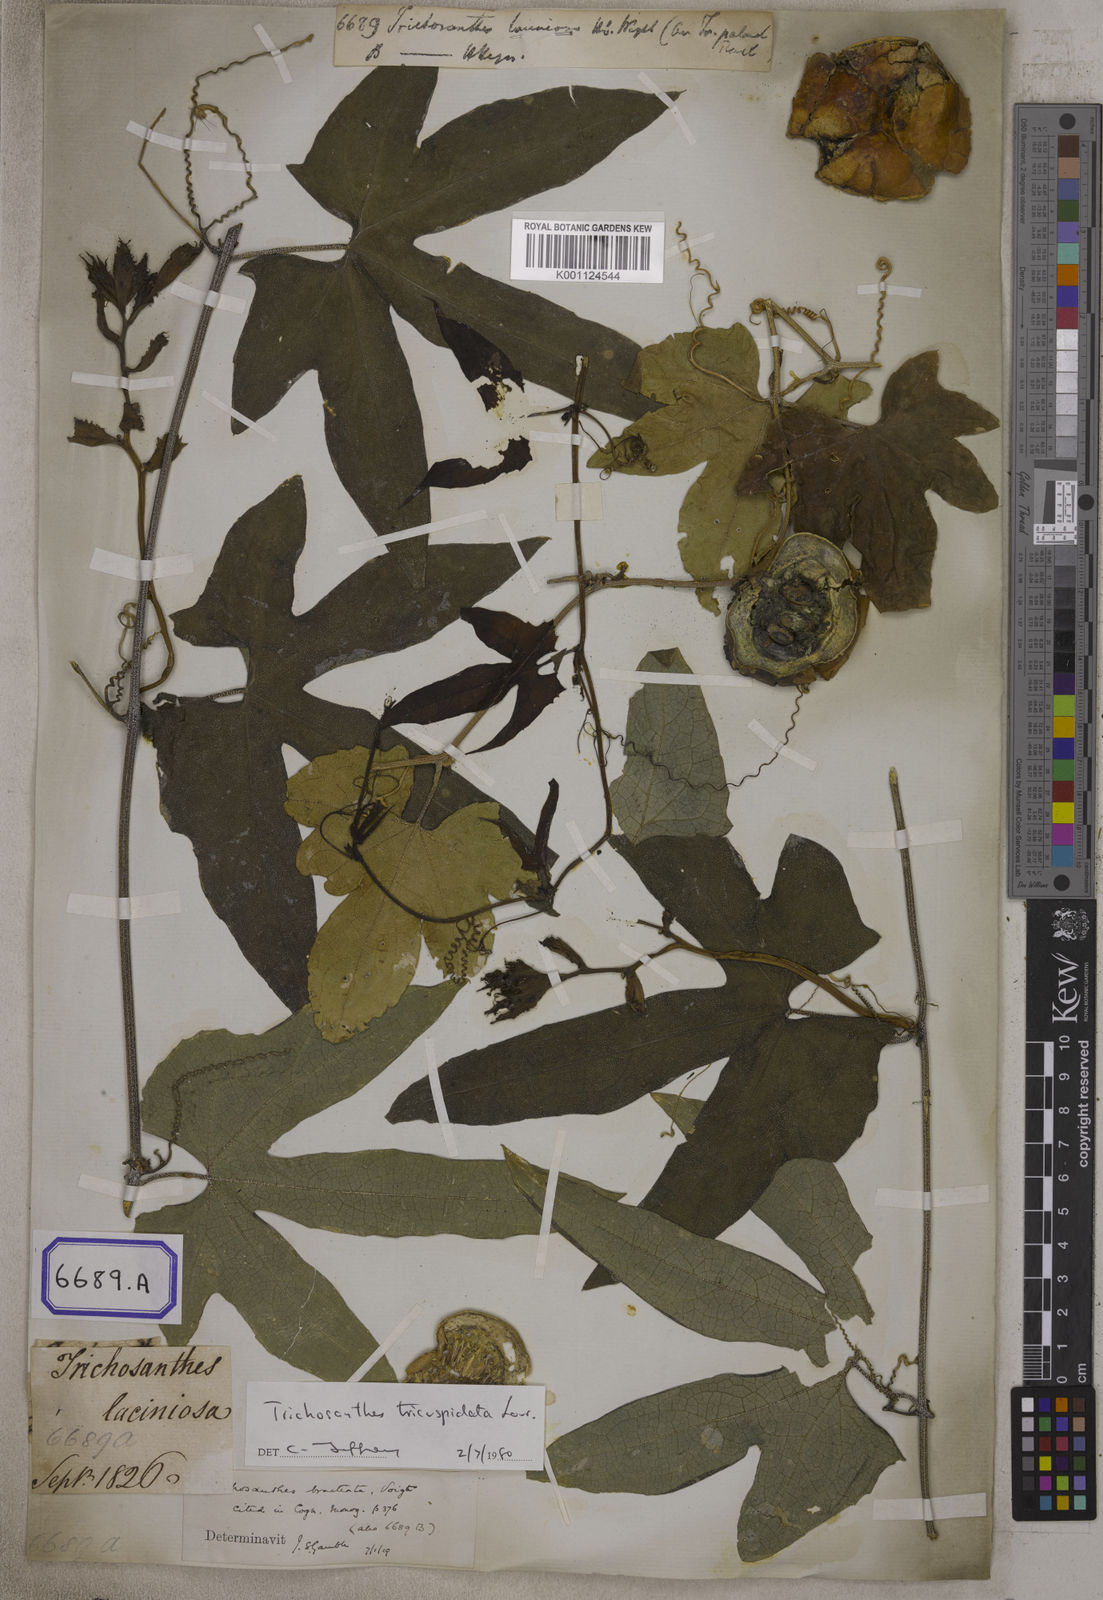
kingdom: Plantae
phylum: Tracheophyta
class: Magnoliopsida
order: Cucurbitales
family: Cucurbitaceae
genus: Trichosanthes
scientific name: Trichosanthes tricuspidata
